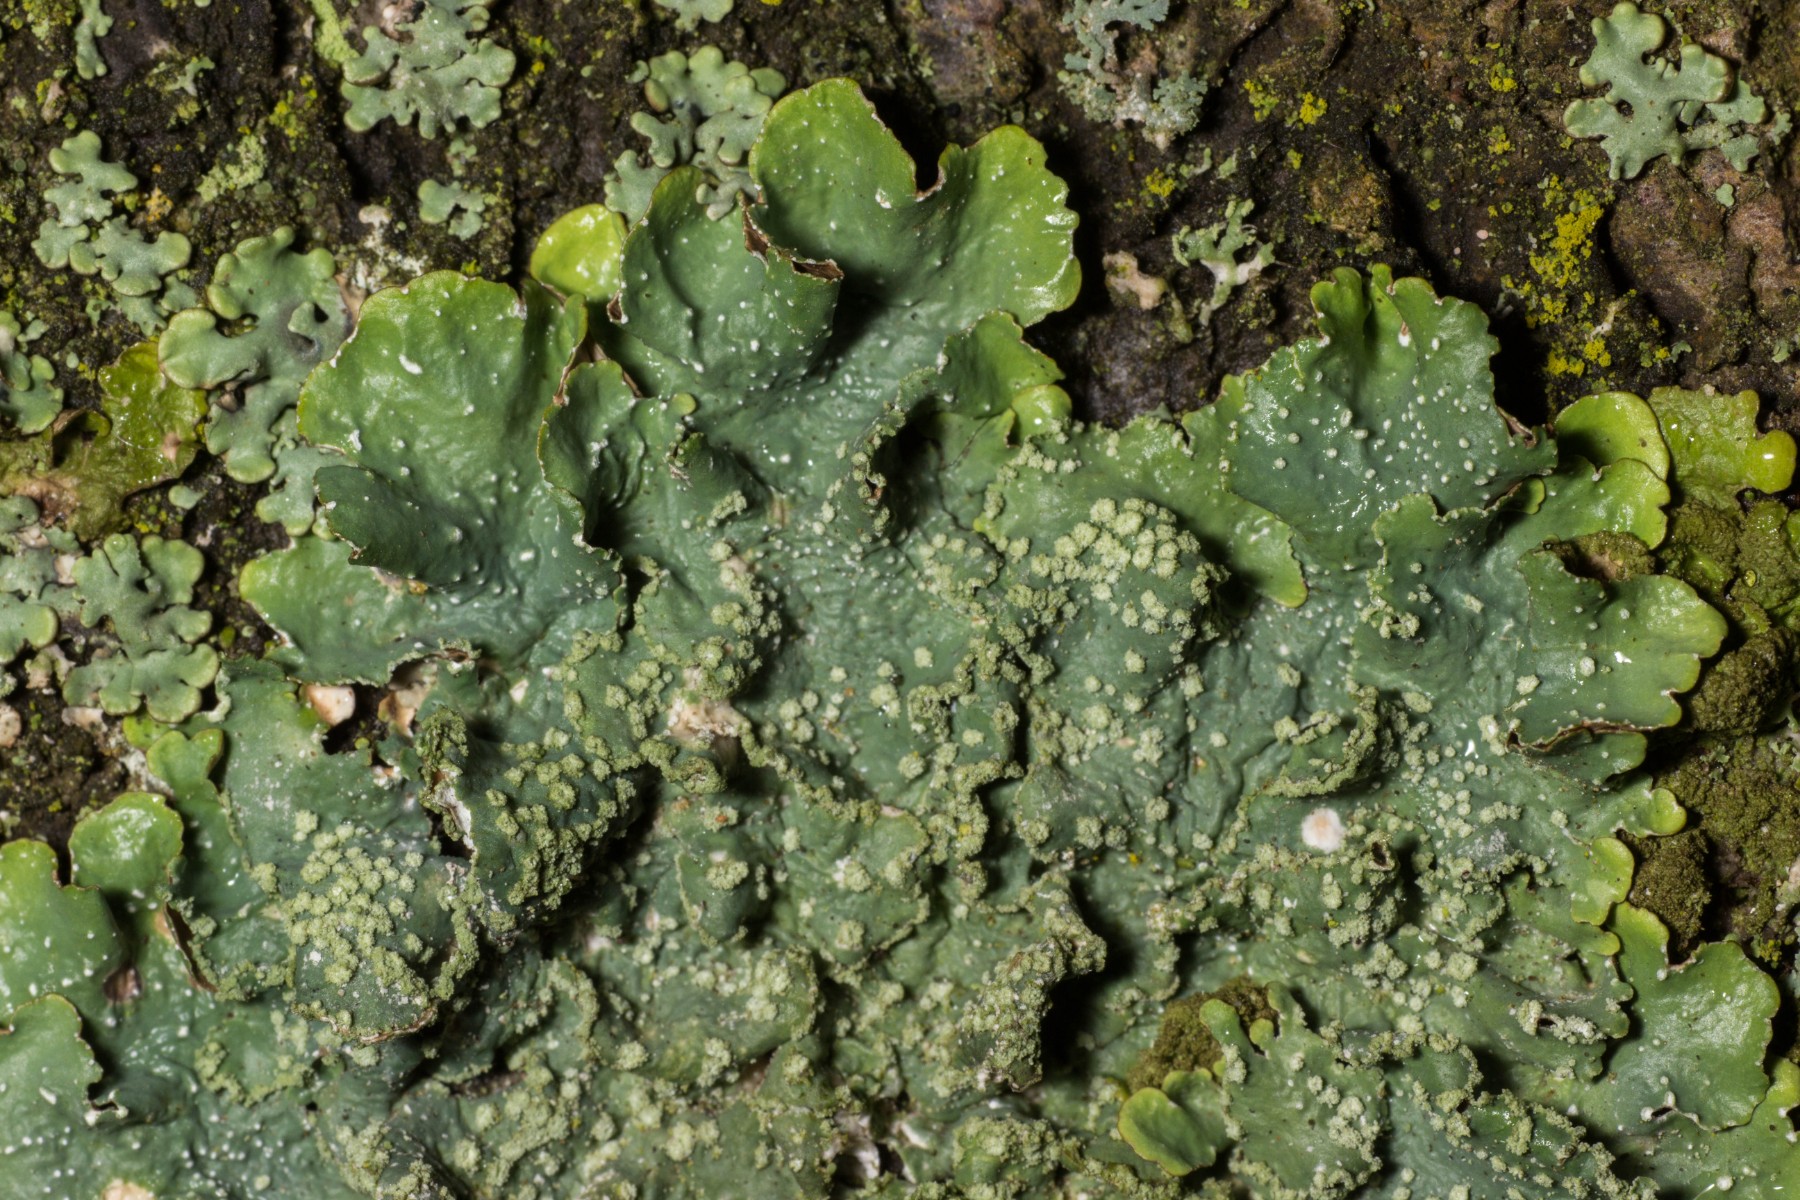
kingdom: Fungi
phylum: Ascomycota
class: Lecanoromycetes
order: Lecanorales
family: Parmeliaceae
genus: Punctelia
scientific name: Punctelia subrudecta
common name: punkt-skållav
